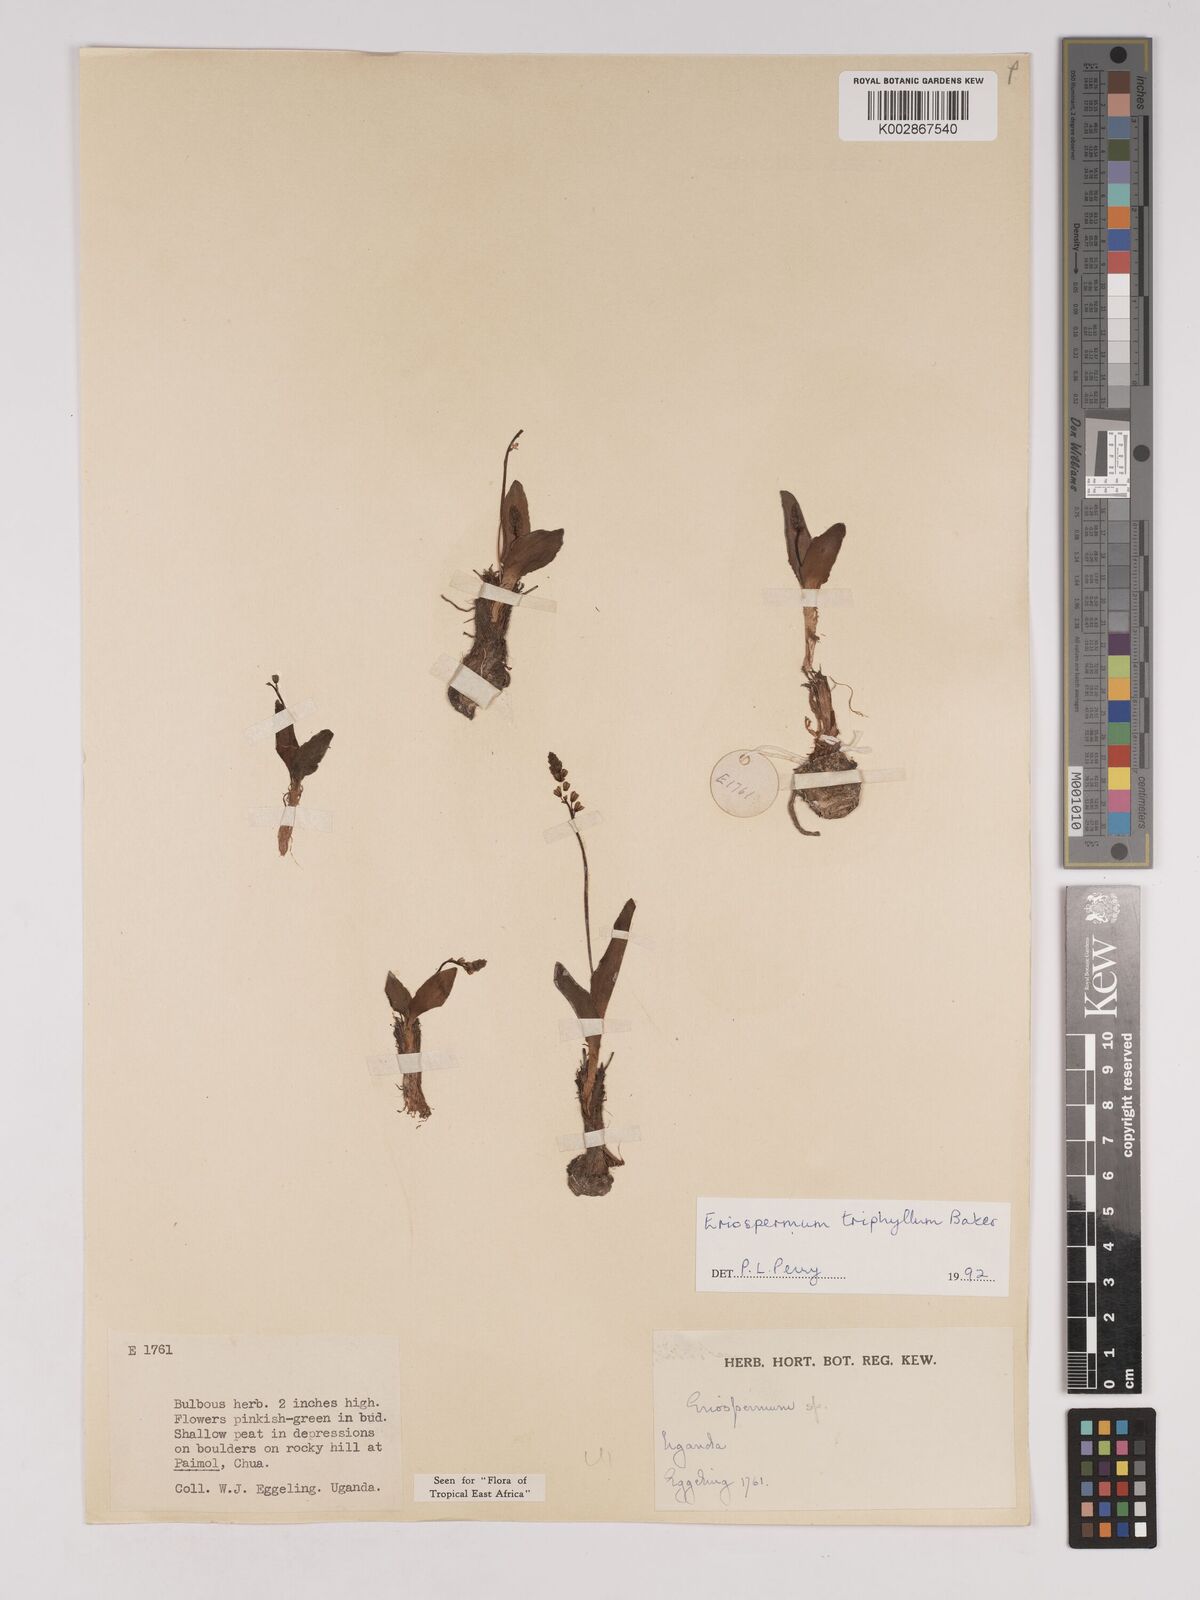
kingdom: Plantae
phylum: Tracheophyta
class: Liliopsida
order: Asparagales
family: Asparagaceae
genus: Eriospermum
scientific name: Eriospermum triphyllum
